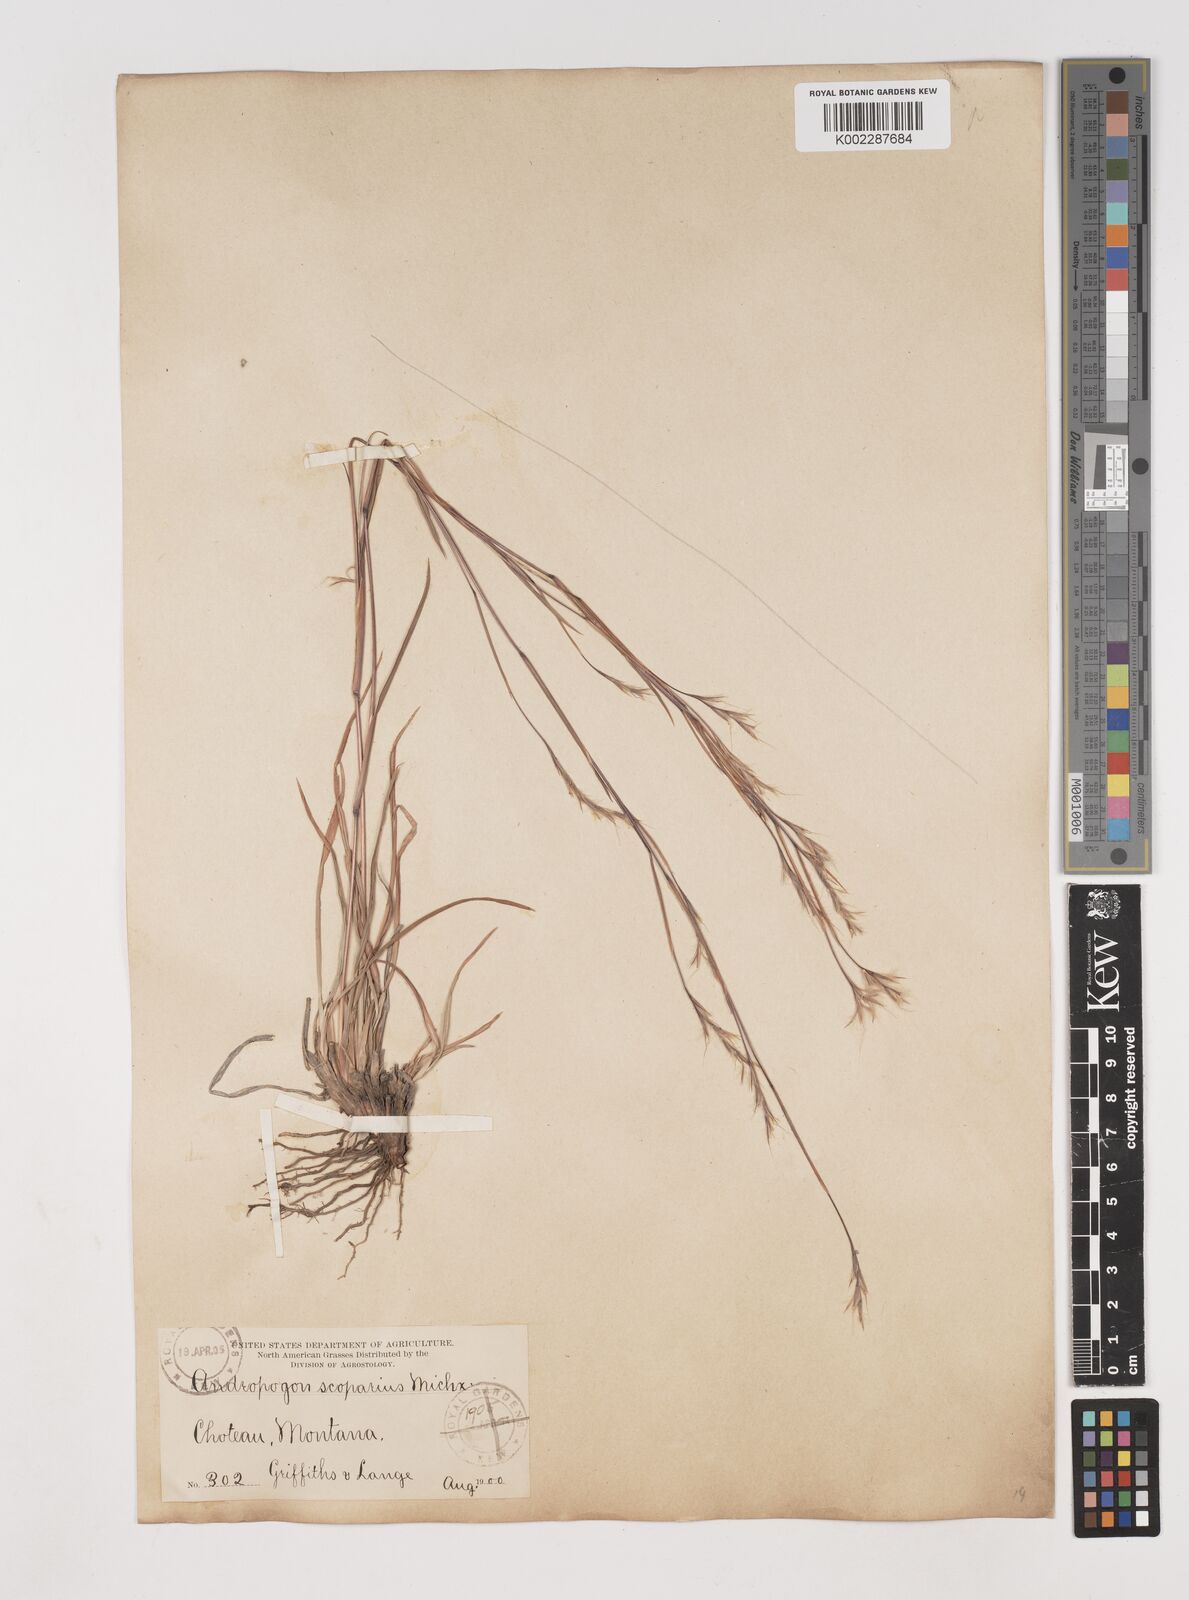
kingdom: Plantae
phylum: Tracheophyta
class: Liliopsida
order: Poales
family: Poaceae
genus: Schizachyrium
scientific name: Schizachyrium scoparium
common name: Little bluestem
